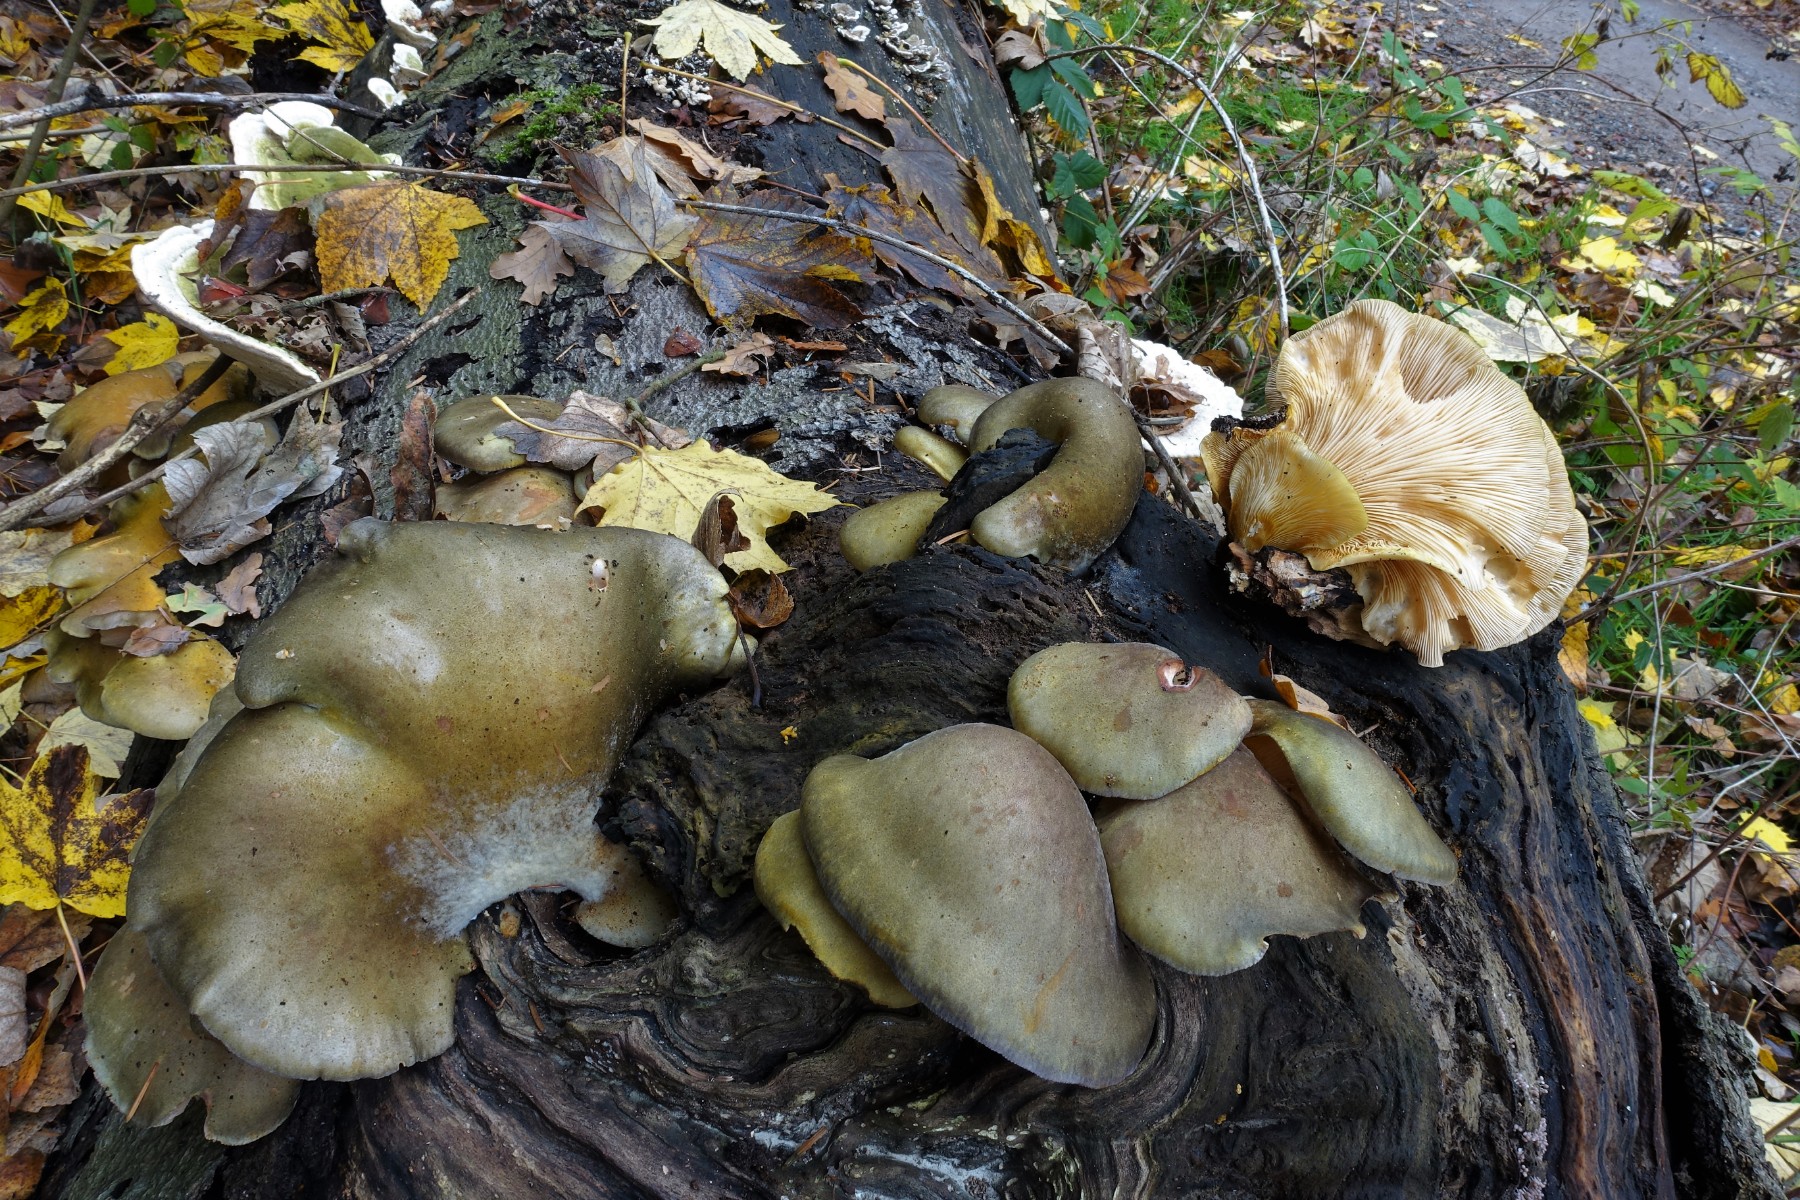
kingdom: Fungi
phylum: Basidiomycota
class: Agaricomycetes
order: Agaricales
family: Sarcomyxaceae
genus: Sarcomyxa
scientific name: Sarcomyxa serotina
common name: gummihat
